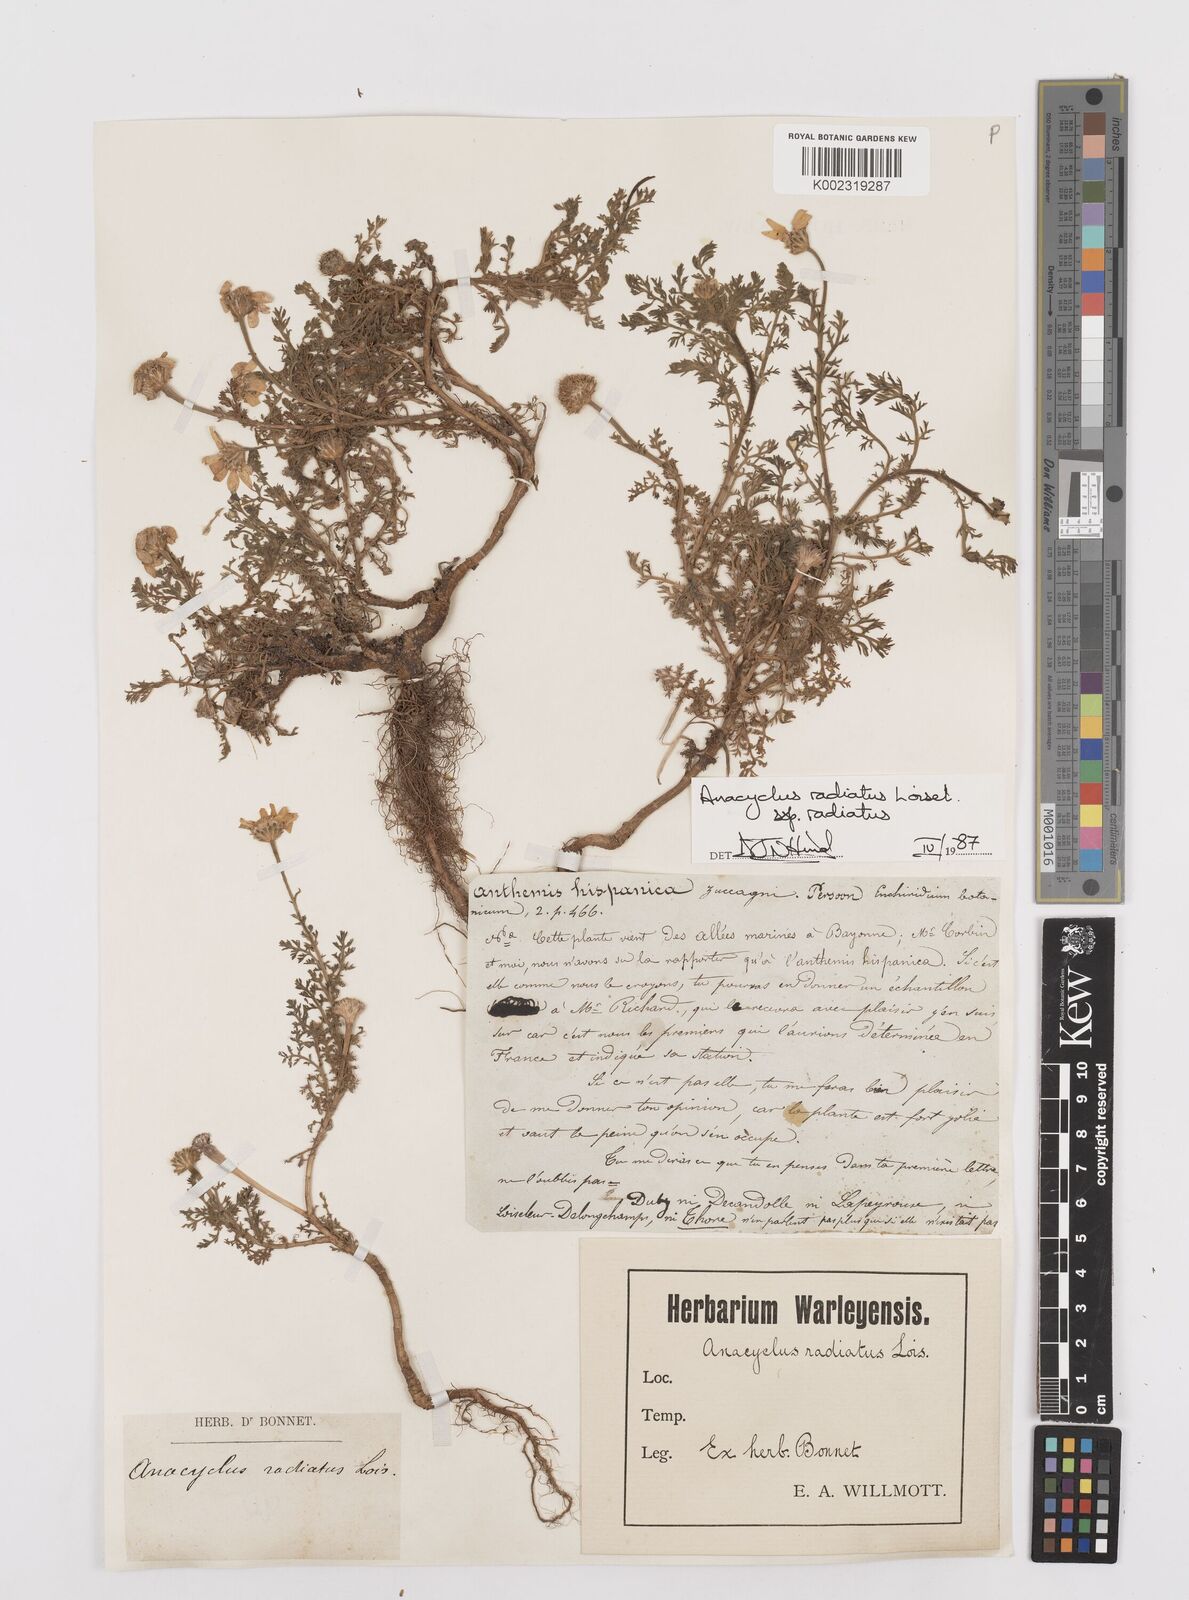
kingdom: Plantae
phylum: Tracheophyta
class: Magnoliopsida
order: Asterales
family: Asteraceae
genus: Anacyclus
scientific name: Anacyclus radiatus
